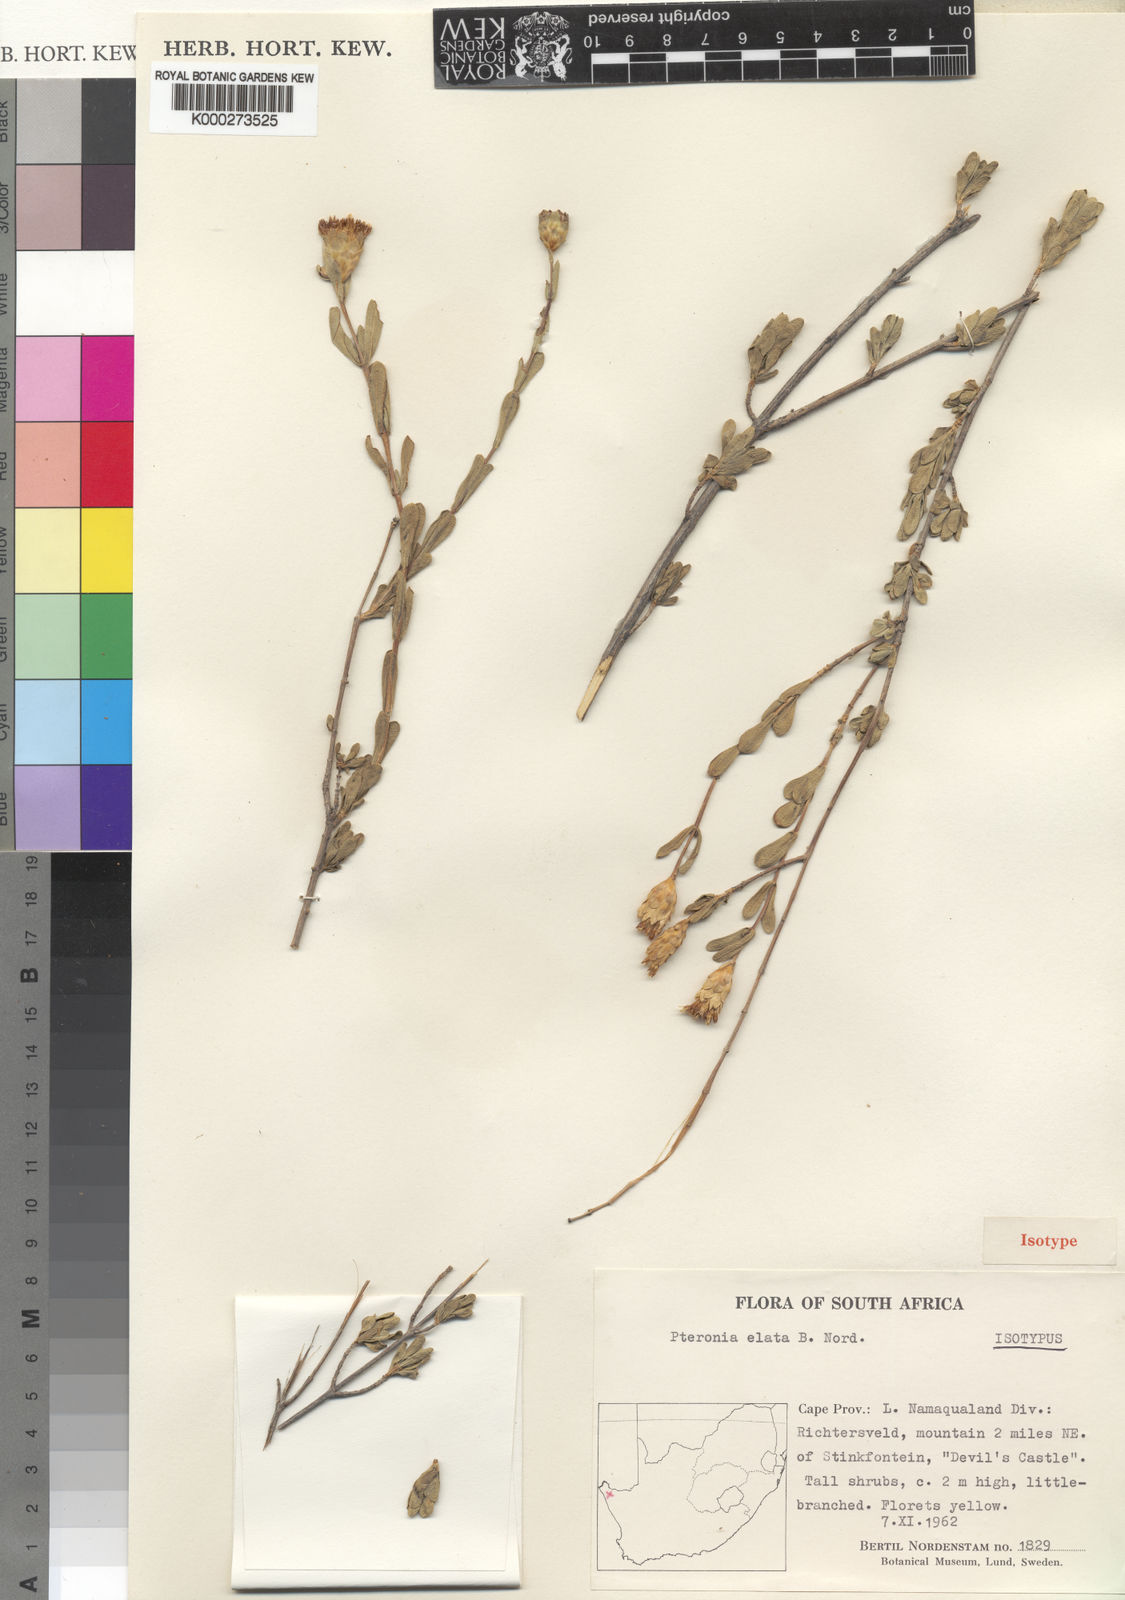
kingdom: Plantae
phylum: Tracheophyta
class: Magnoliopsida
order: Asterales
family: Asteraceae
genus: Pteronia
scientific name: Pteronia elata
